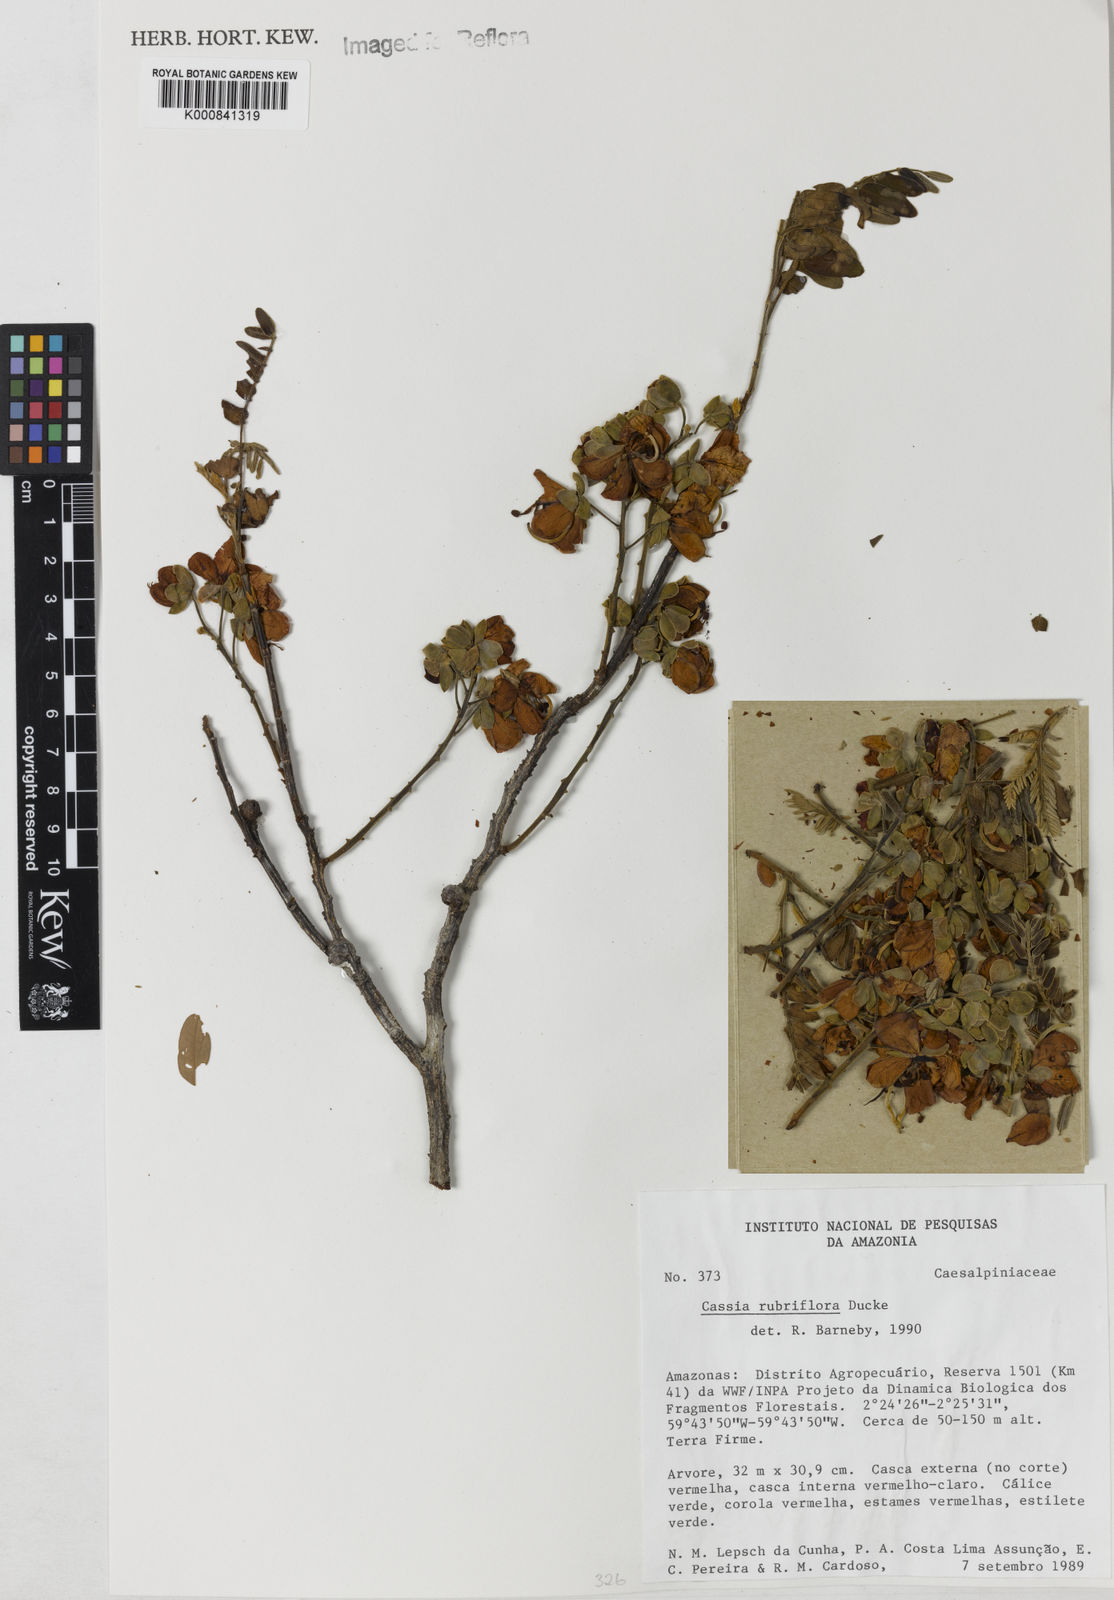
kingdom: Plantae
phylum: Tracheophyta
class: Magnoliopsida
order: Fabales
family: Fabaceae
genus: Cassia
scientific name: Cassia rubriflora
